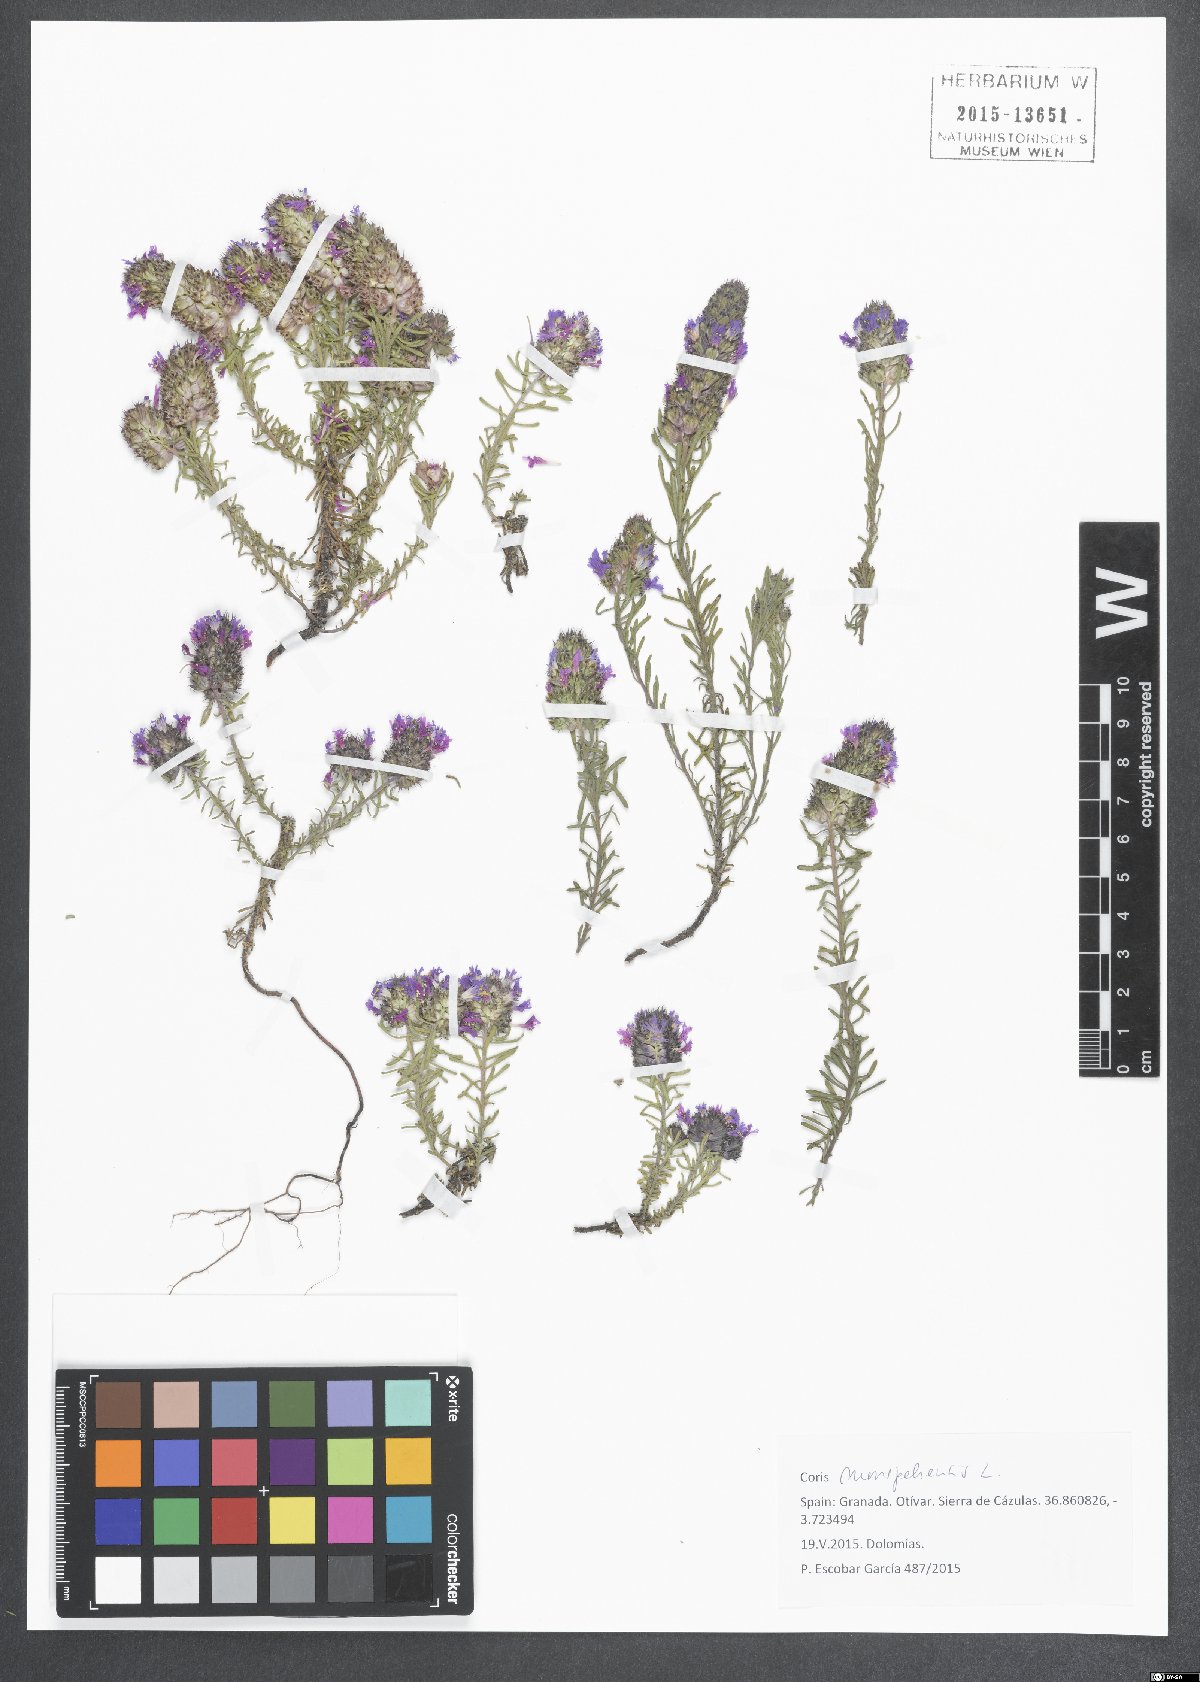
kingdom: Plantae
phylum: Tracheophyta
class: Magnoliopsida
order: Ericales
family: Primulaceae
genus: Coris
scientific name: Coris monspeliensis
